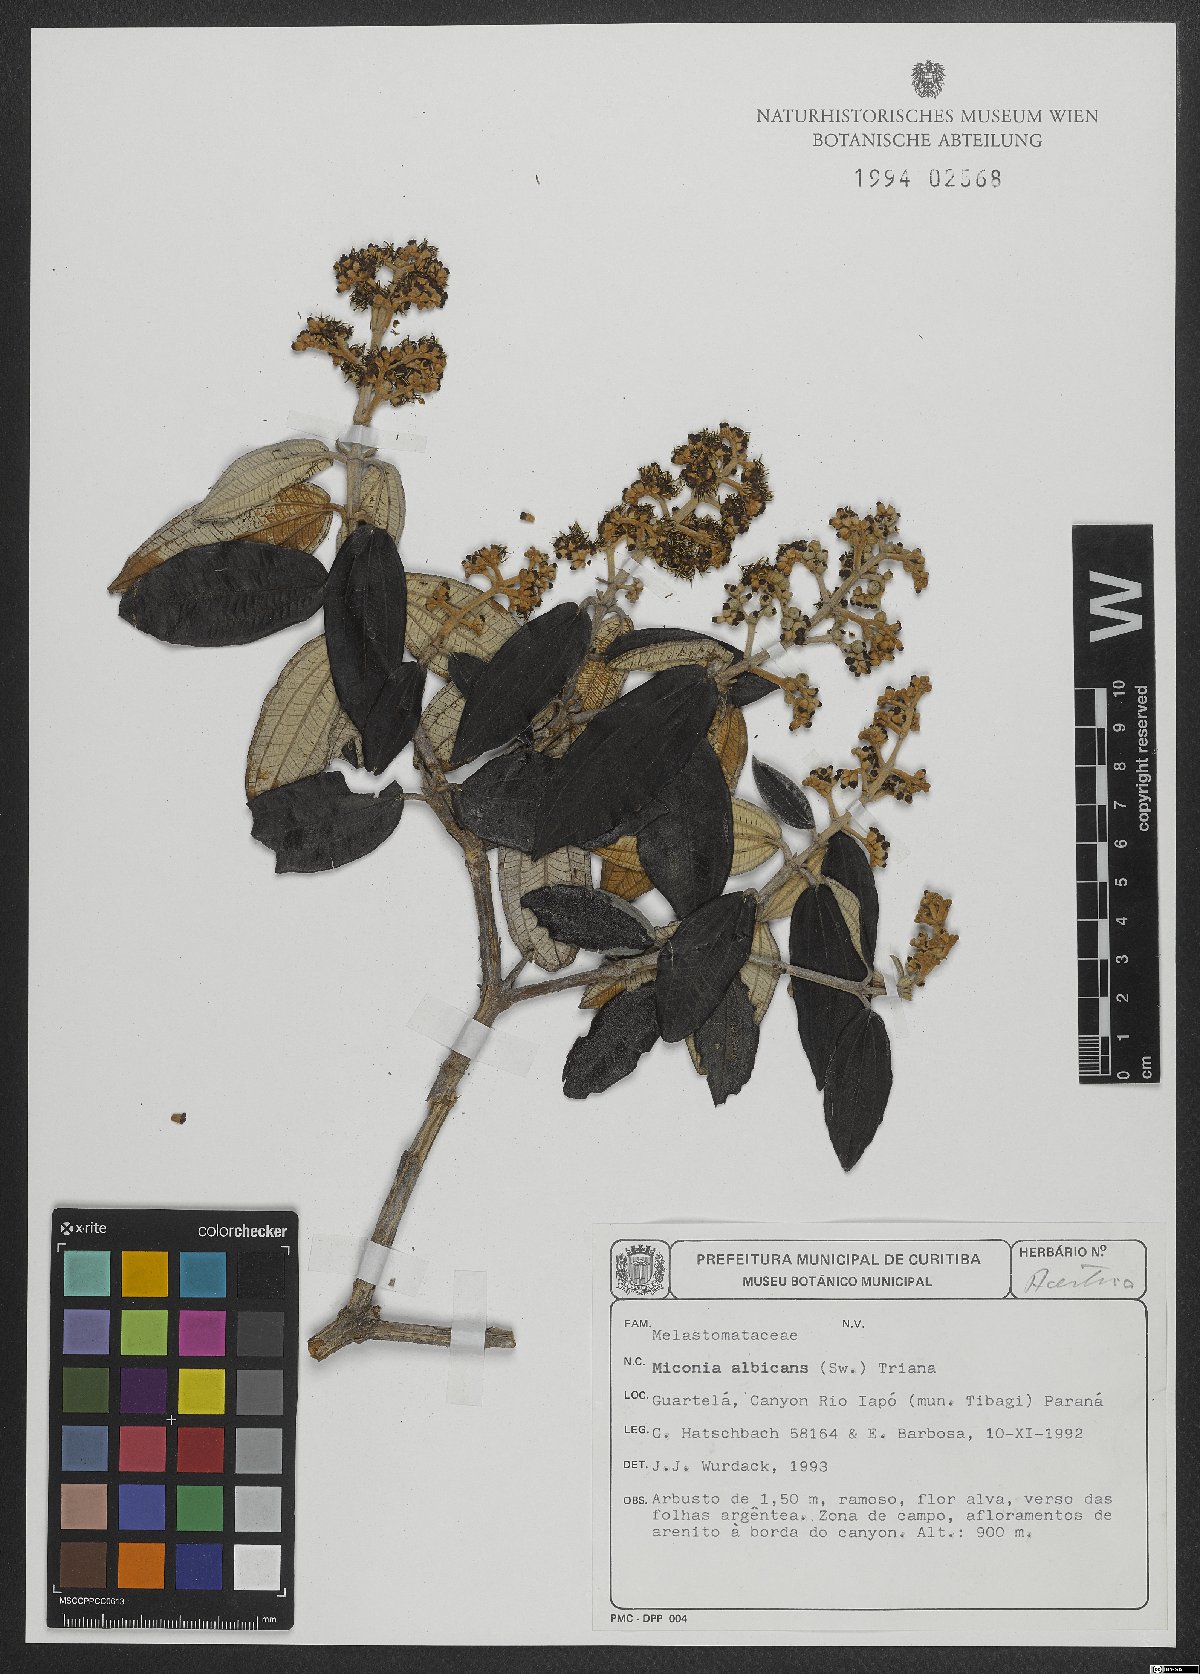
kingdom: Plantae
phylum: Tracheophyta
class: Magnoliopsida
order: Myrtales
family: Melastomataceae
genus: Miconia
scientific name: Miconia albicans
